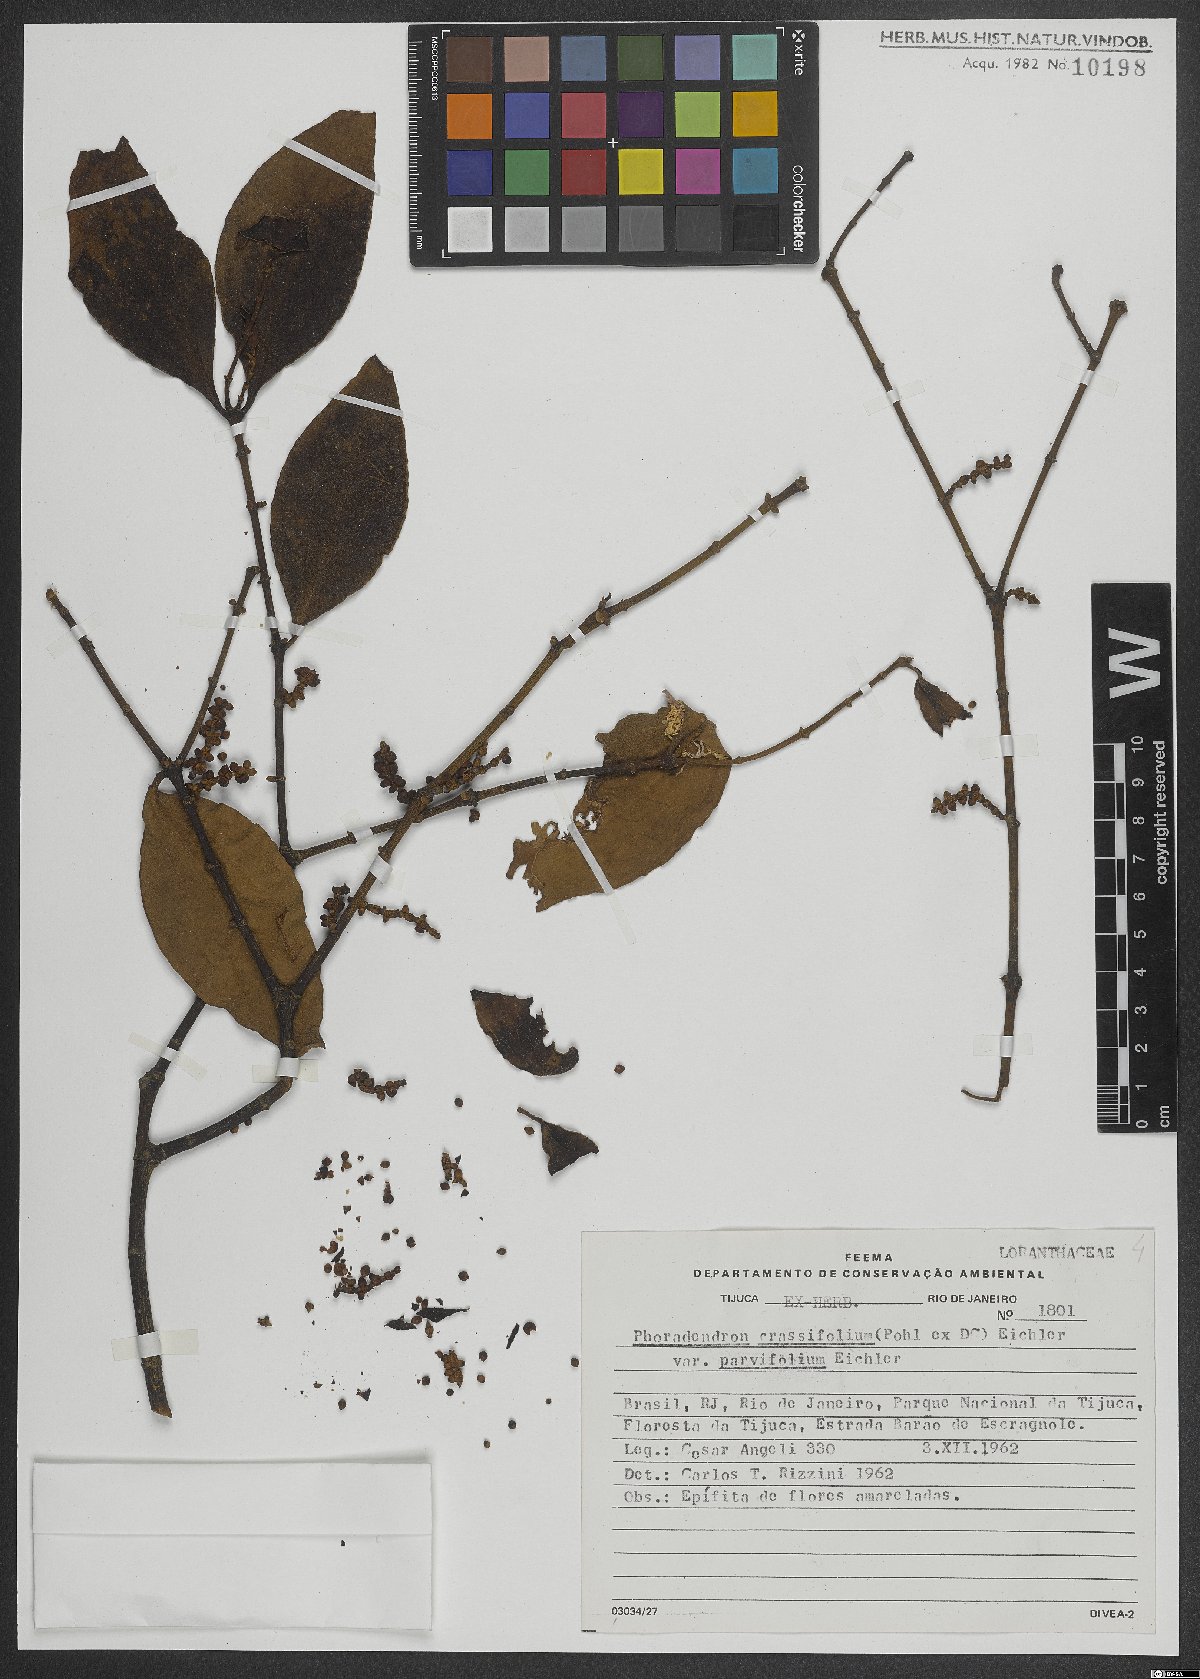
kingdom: Plantae
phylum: Tracheophyta
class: Magnoliopsida
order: Santalales
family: Viscaceae
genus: Phoradendron
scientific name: Phoradendron crassifolium
